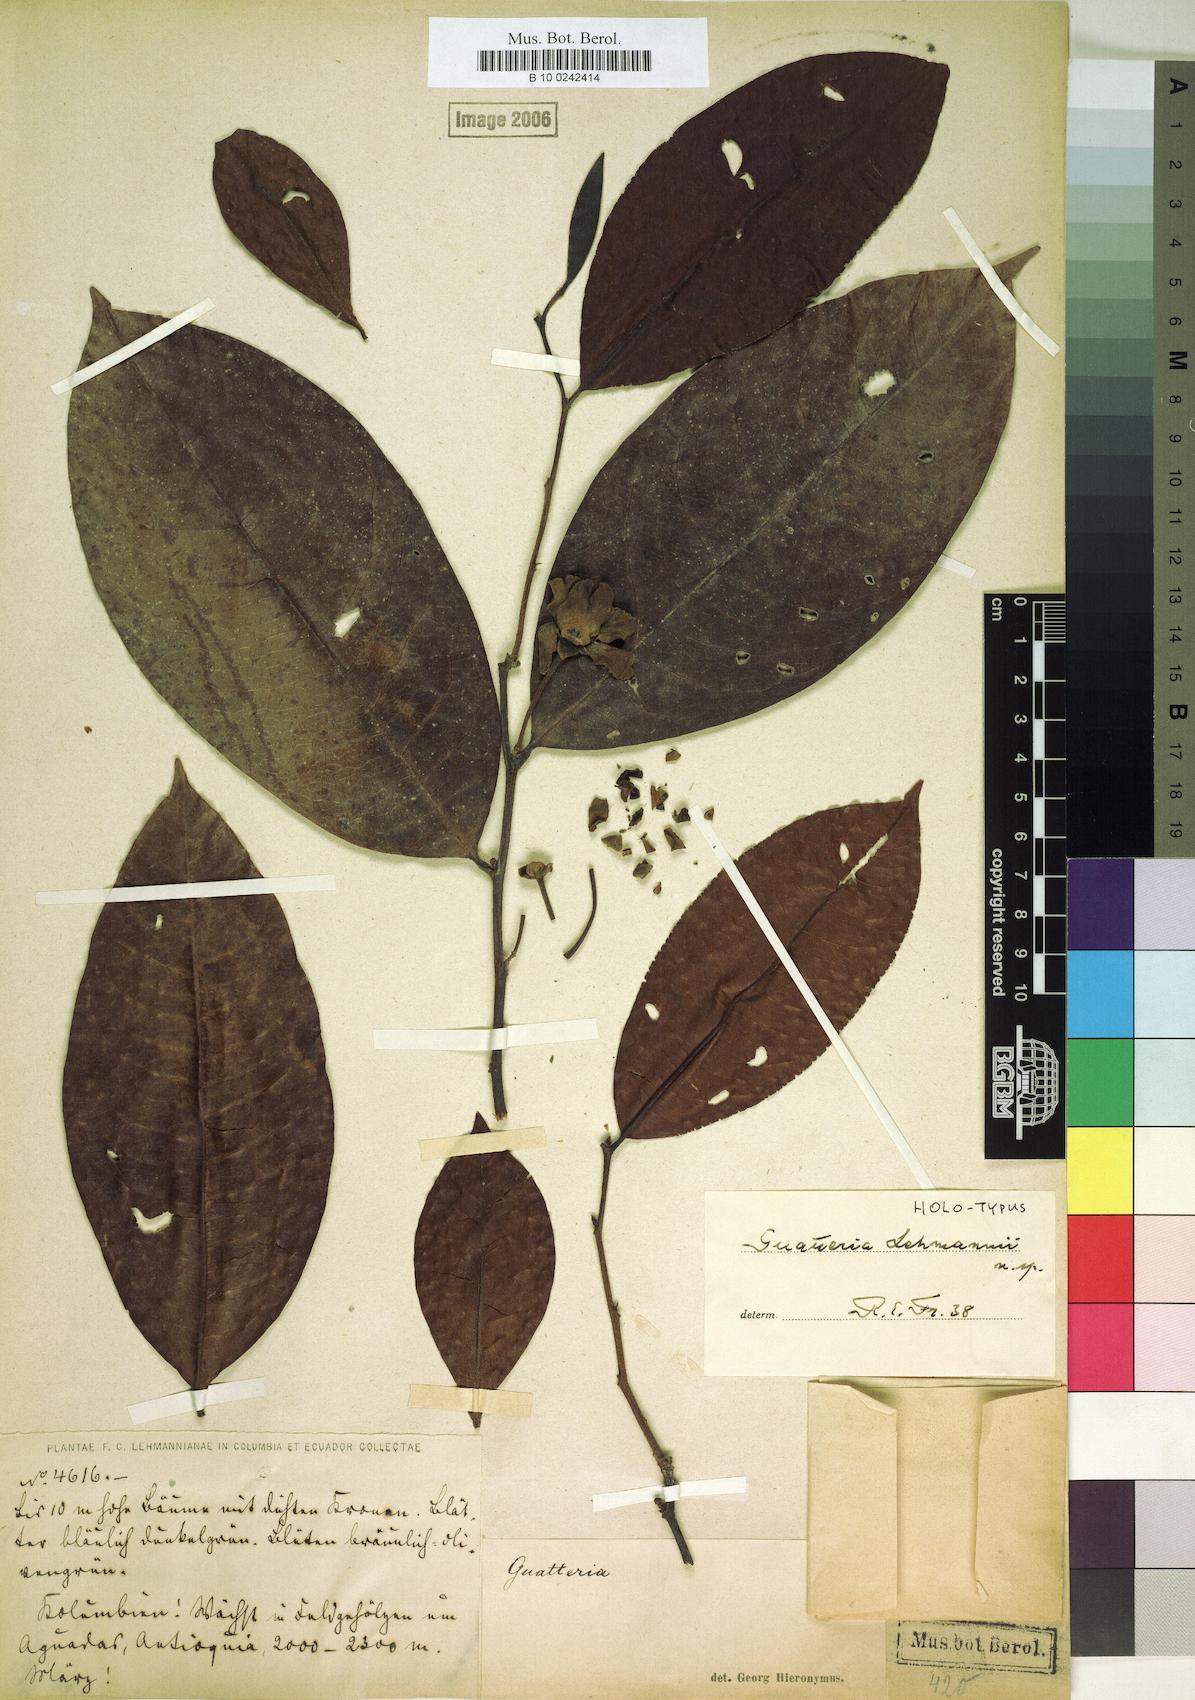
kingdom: Plantae
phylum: Tracheophyta
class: Magnoliopsida
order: Magnoliales
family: Annonaceae
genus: Guatteria
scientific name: Guatteria lehmannii
